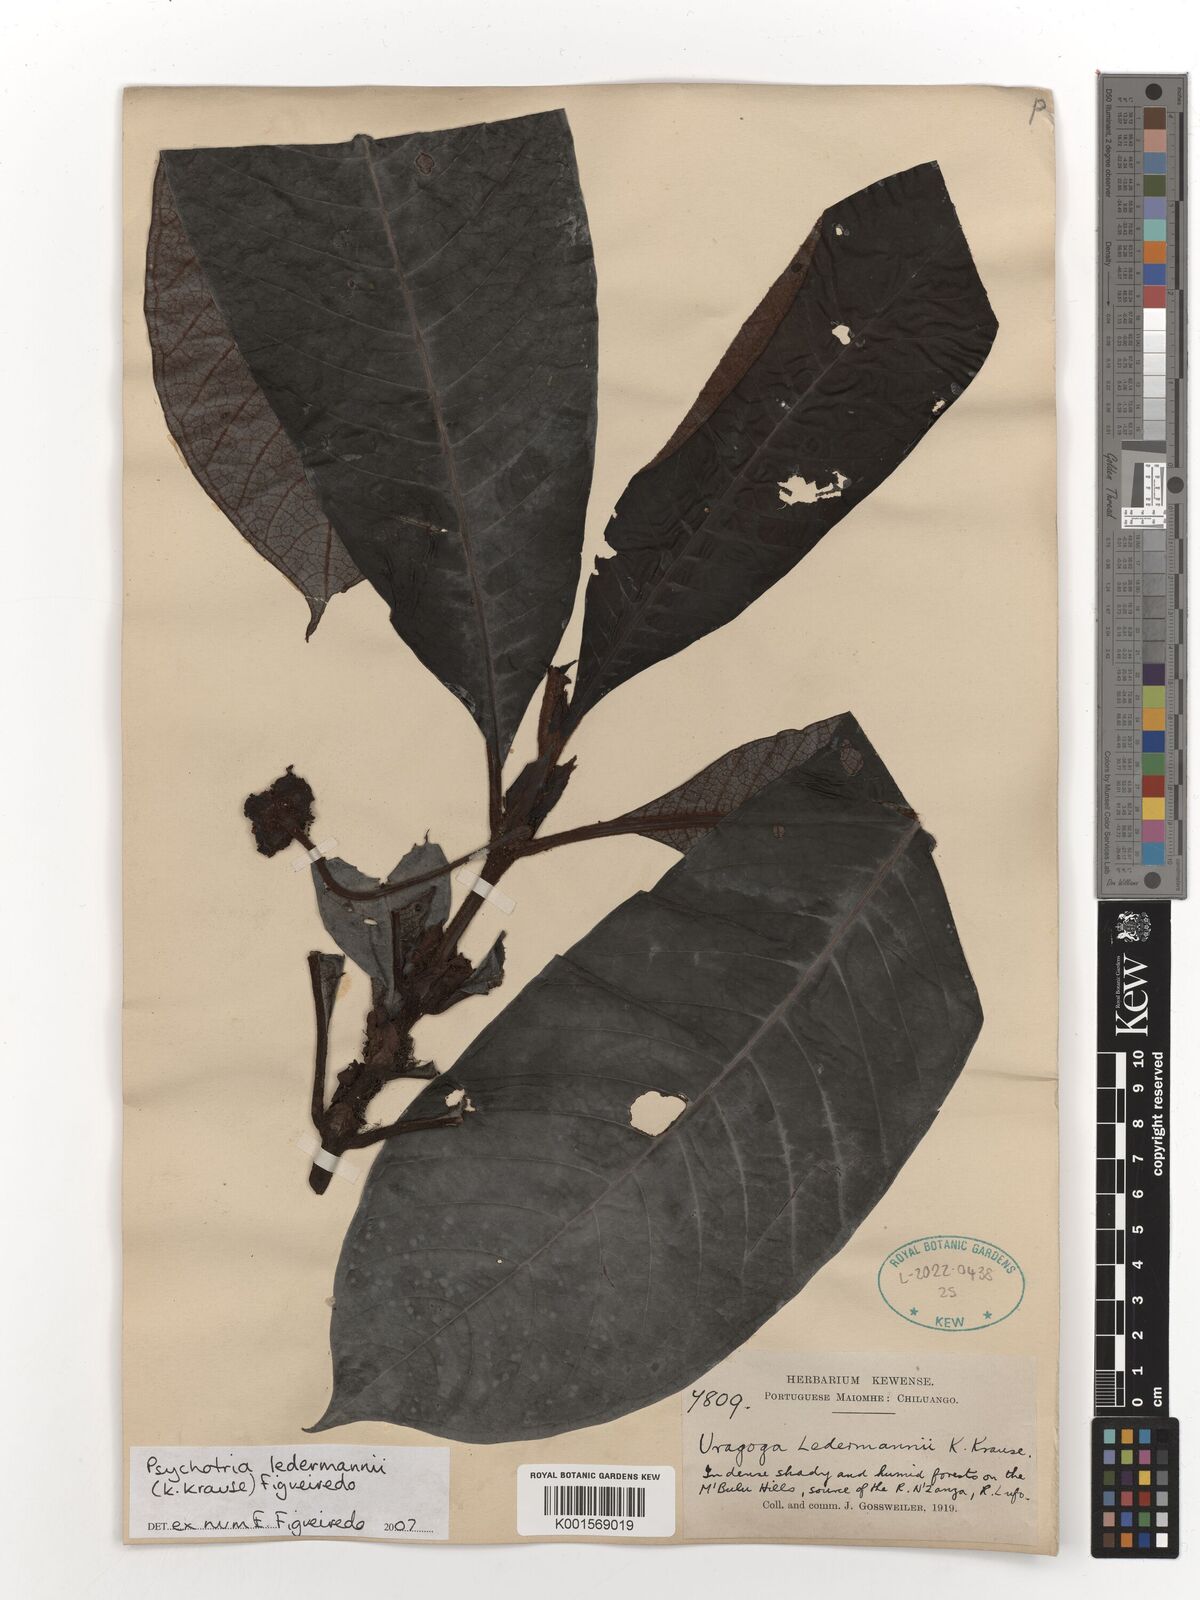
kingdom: Plantae
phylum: Tracheophyta
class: Magnoliopsida
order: Gentianales
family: Rubiaceae
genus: Psychotria
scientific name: Psychotria ledermannii
